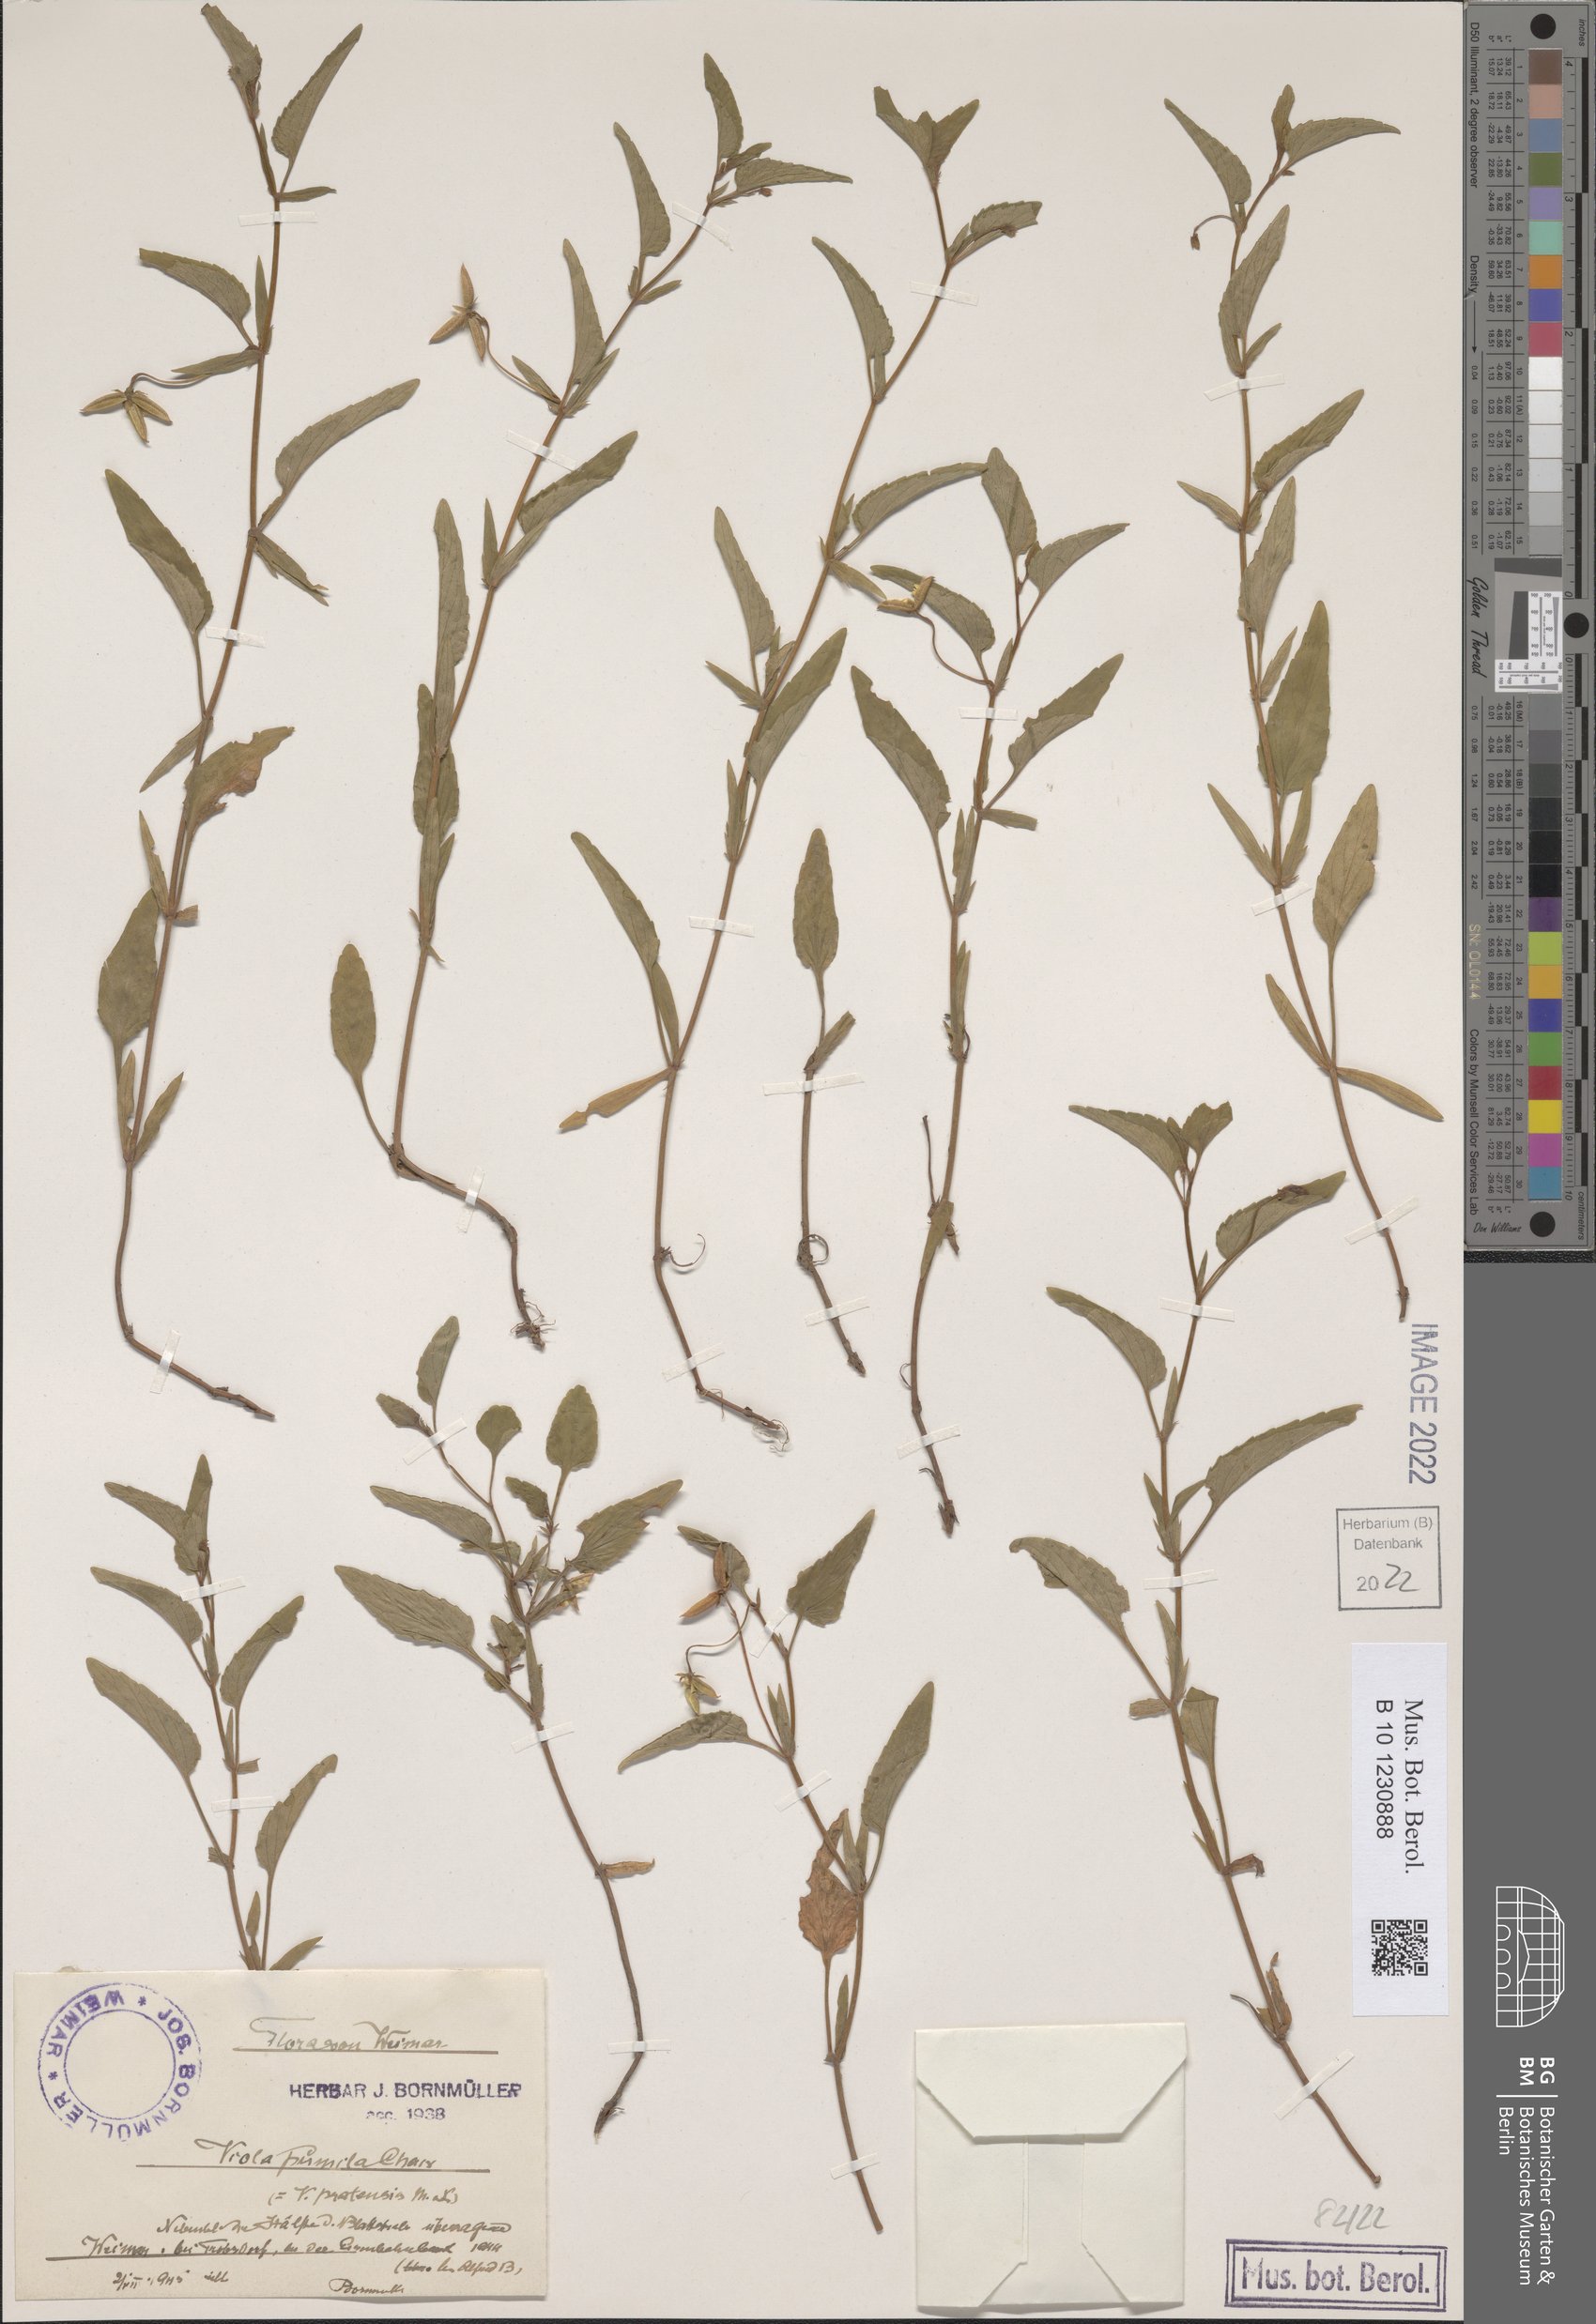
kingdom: Plantae
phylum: Tracheophyta
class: Magnoliopsida
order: Malpighiales
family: Violaceae
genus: Viola
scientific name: Viola pumila
